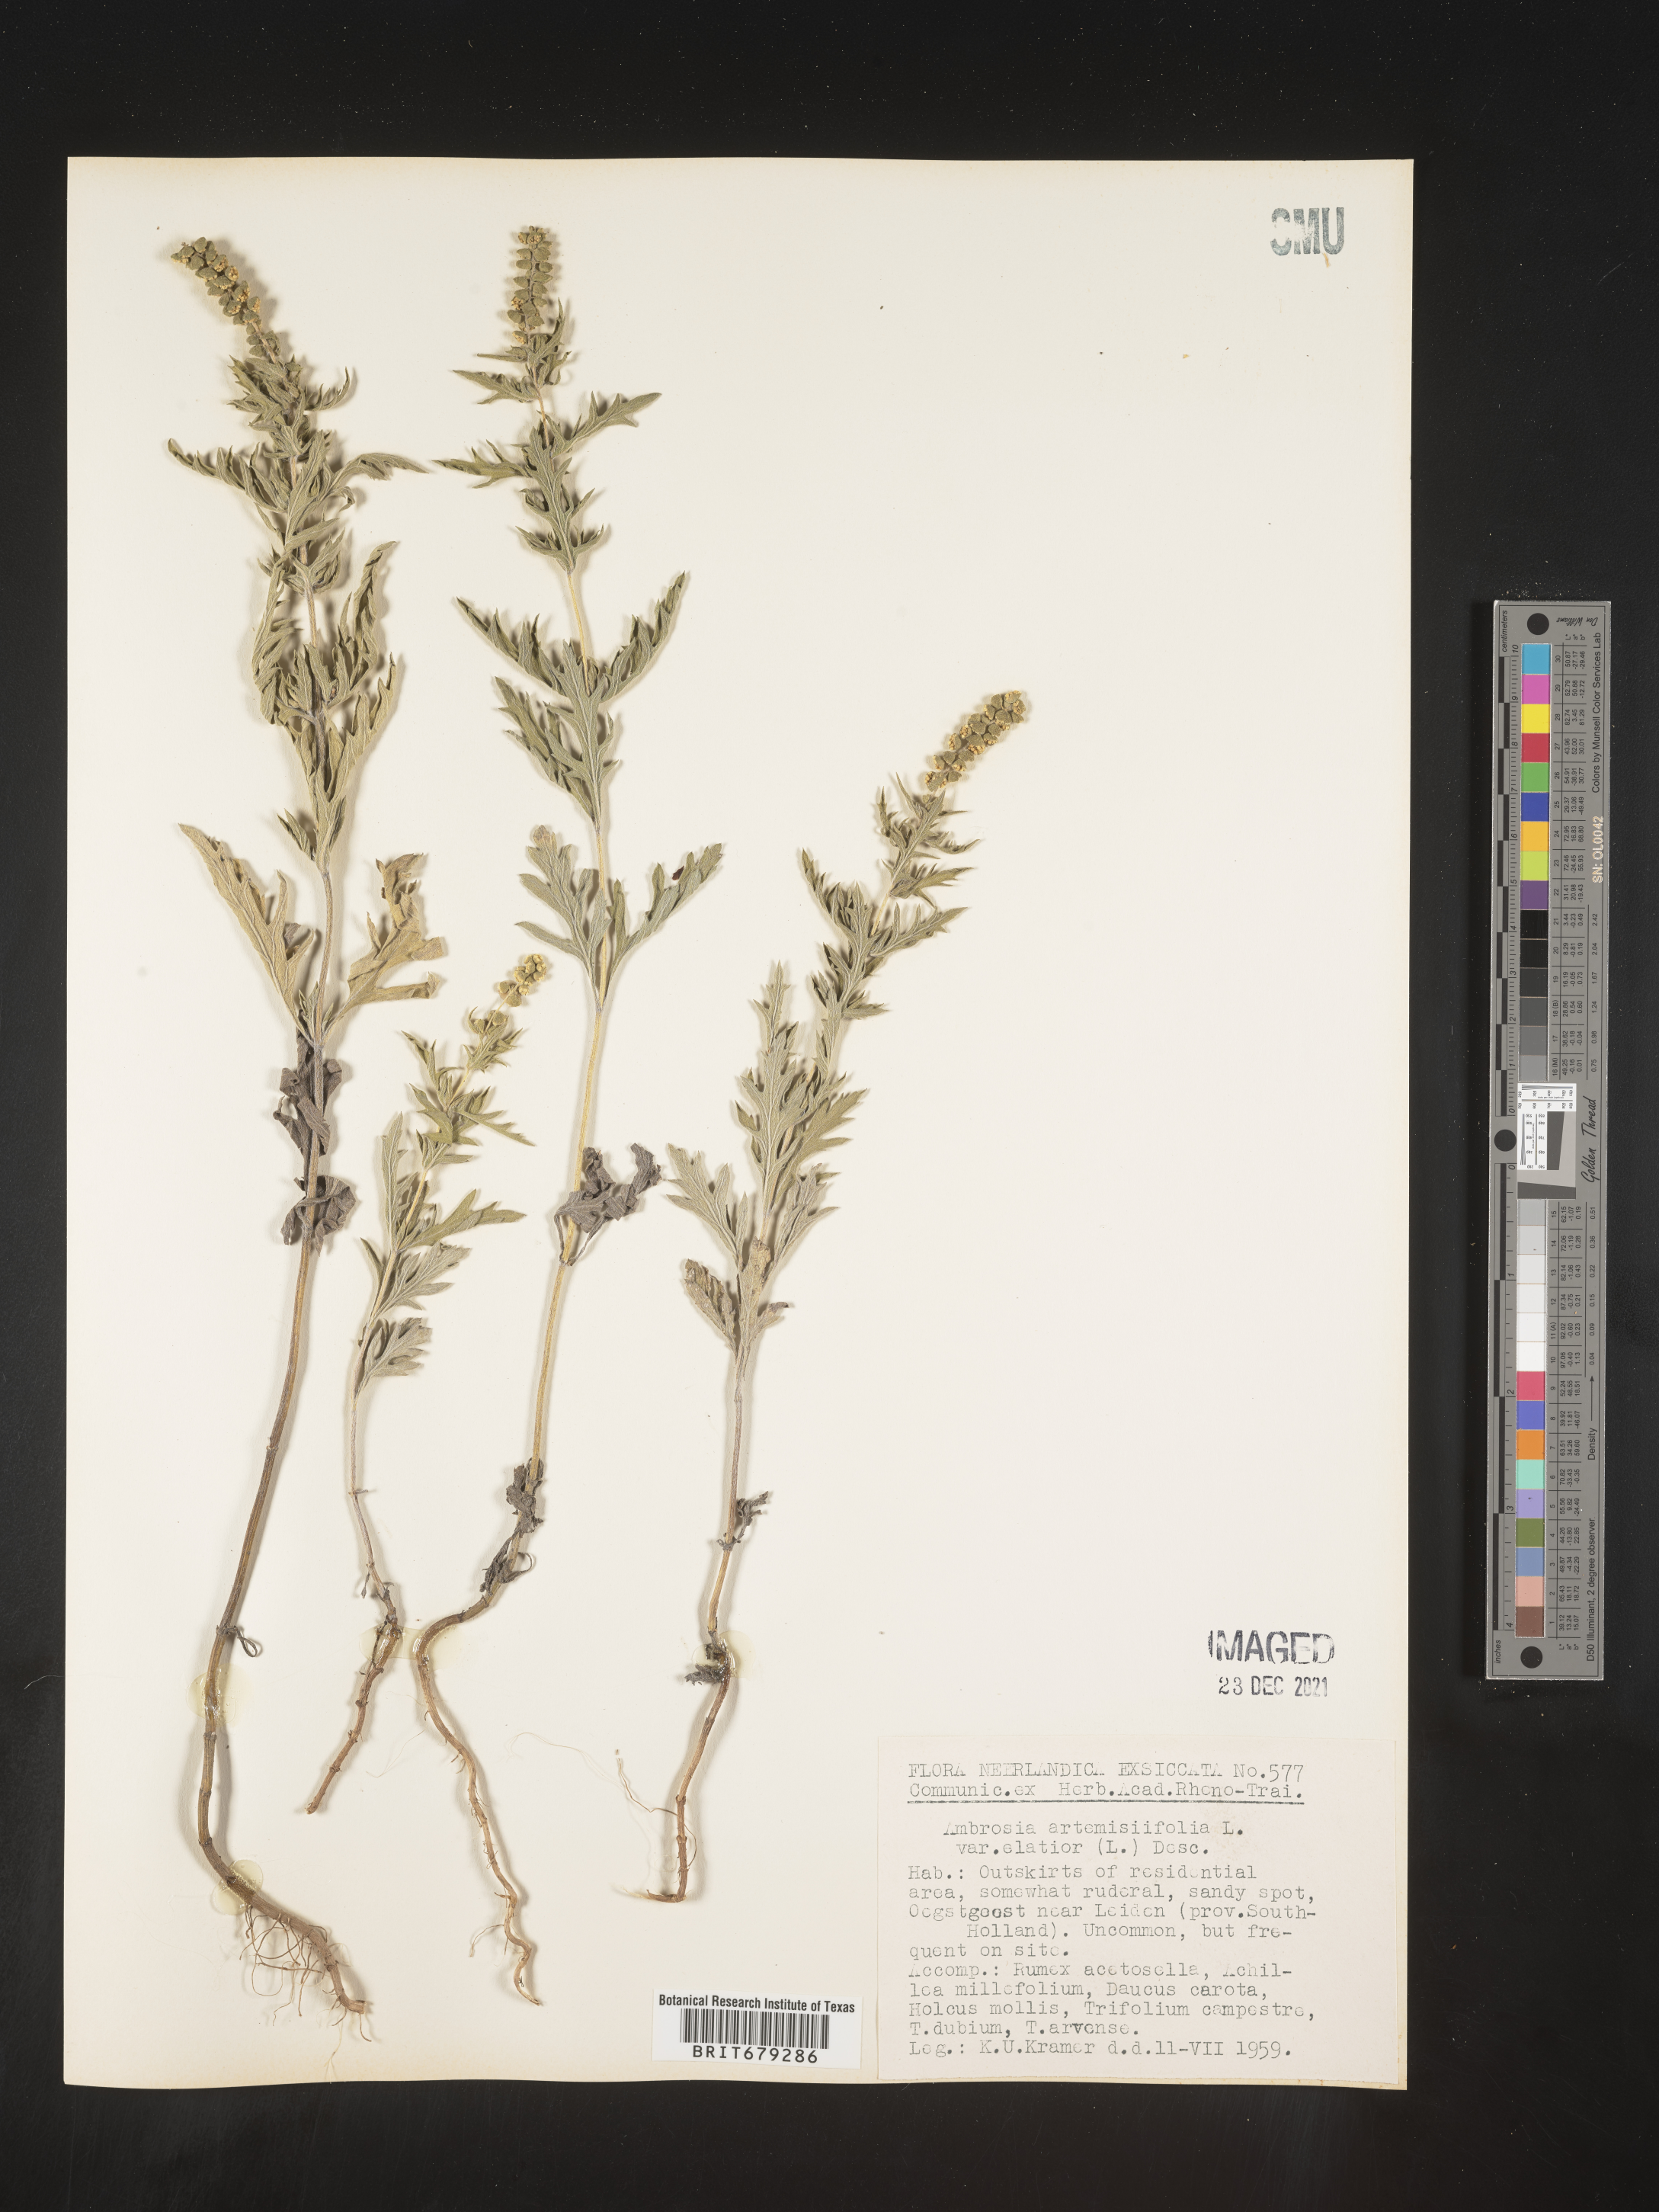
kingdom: Plantae
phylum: Tracheophyta
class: Magnoliopsida
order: Asterales
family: Asteraceae
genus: Ambrosia
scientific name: Ambrosia
